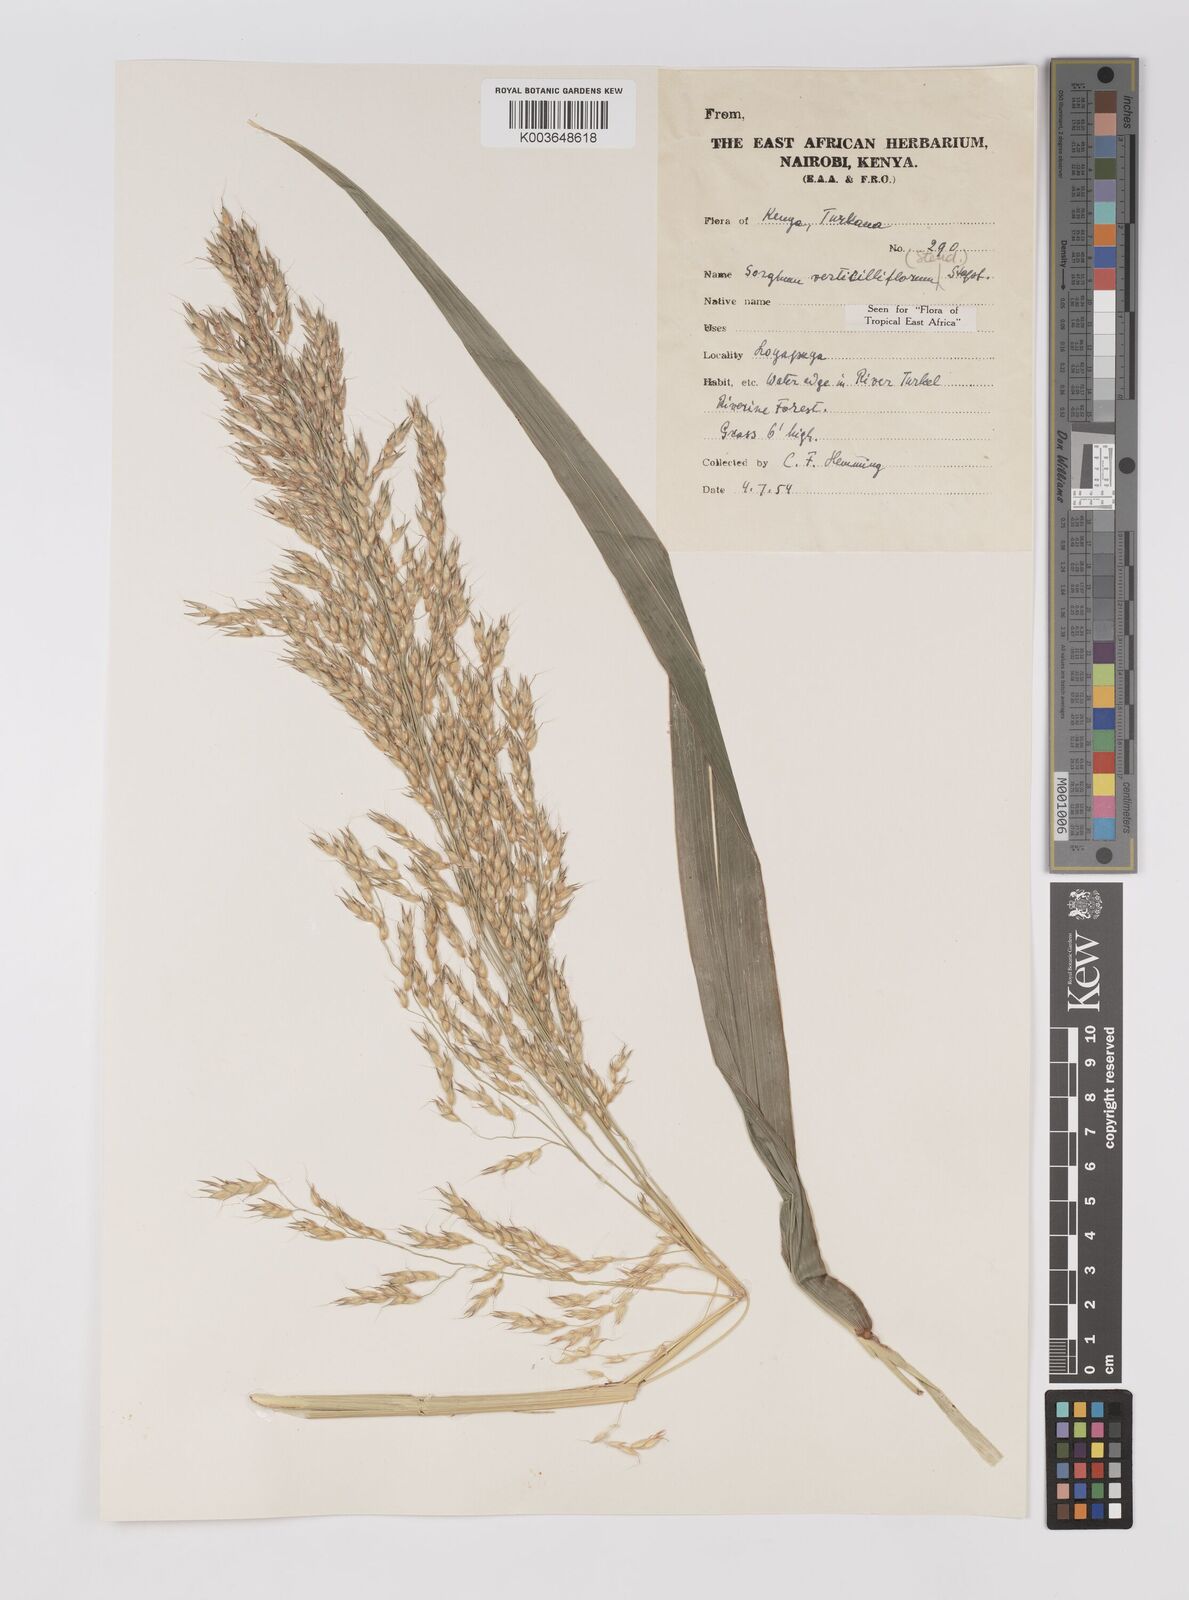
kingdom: Plantae
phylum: Tracheophyta
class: Liliopsida
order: Poales
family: Poaceae
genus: Sorghum
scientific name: Sorghum arundinaceum
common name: Sorghum
